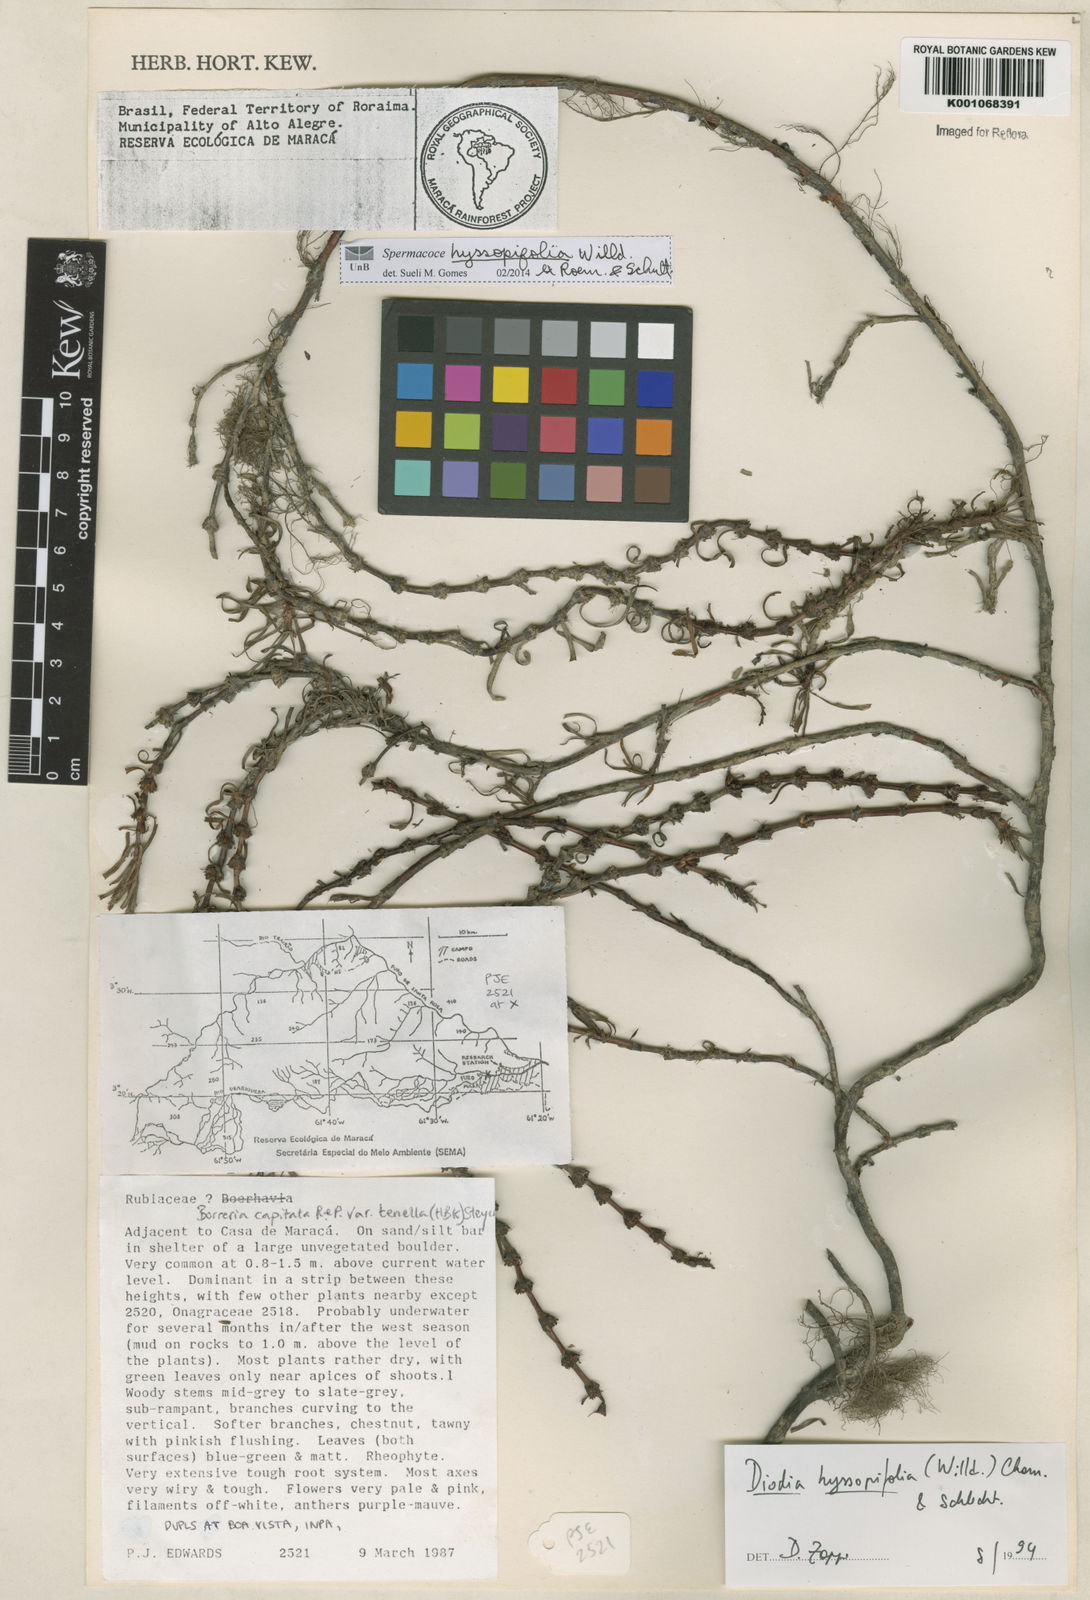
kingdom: Plantae
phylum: Tracheophyta
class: Magnoliopsida
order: Gentianales
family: Rubiaceae
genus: Spermacoce
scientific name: Spermacoce
